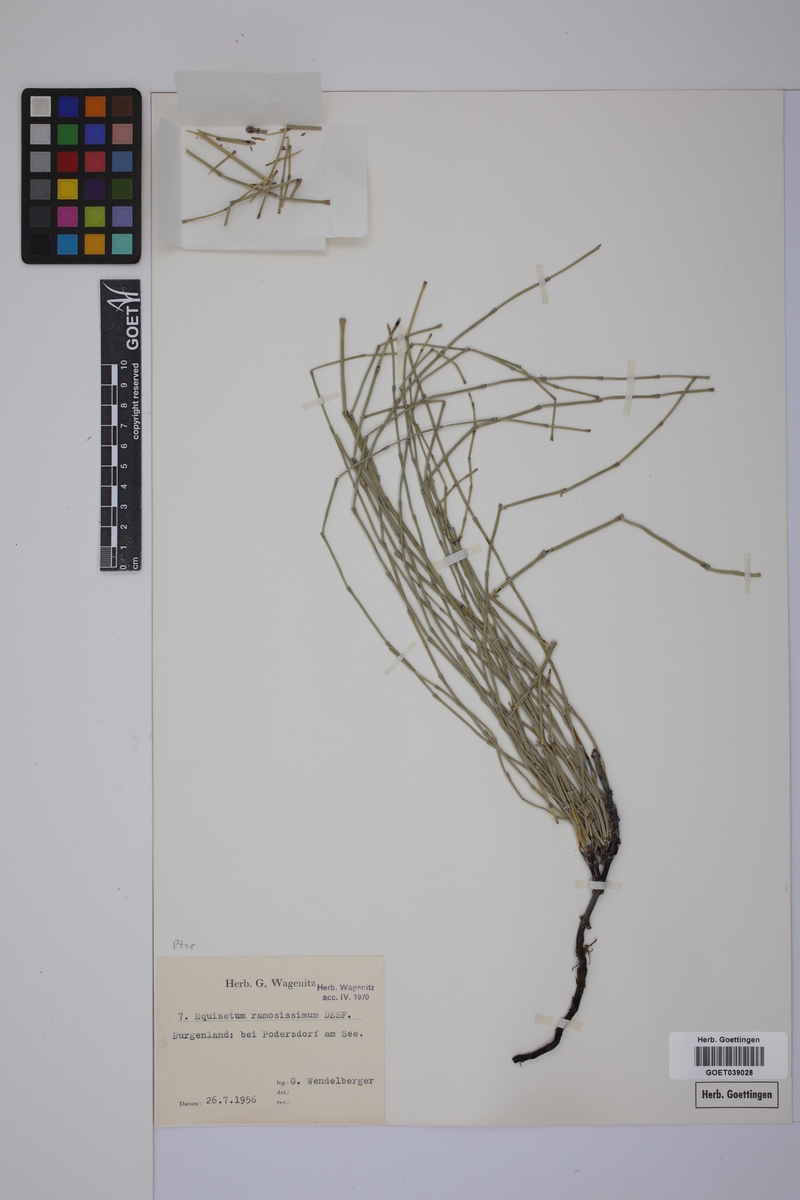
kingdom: Plantae
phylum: Tracheophyta
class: Polypodiopsida
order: Equisetales
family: Equisetaceae
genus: Equisetum
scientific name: Equisetum giganteum
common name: Giant horsetail
